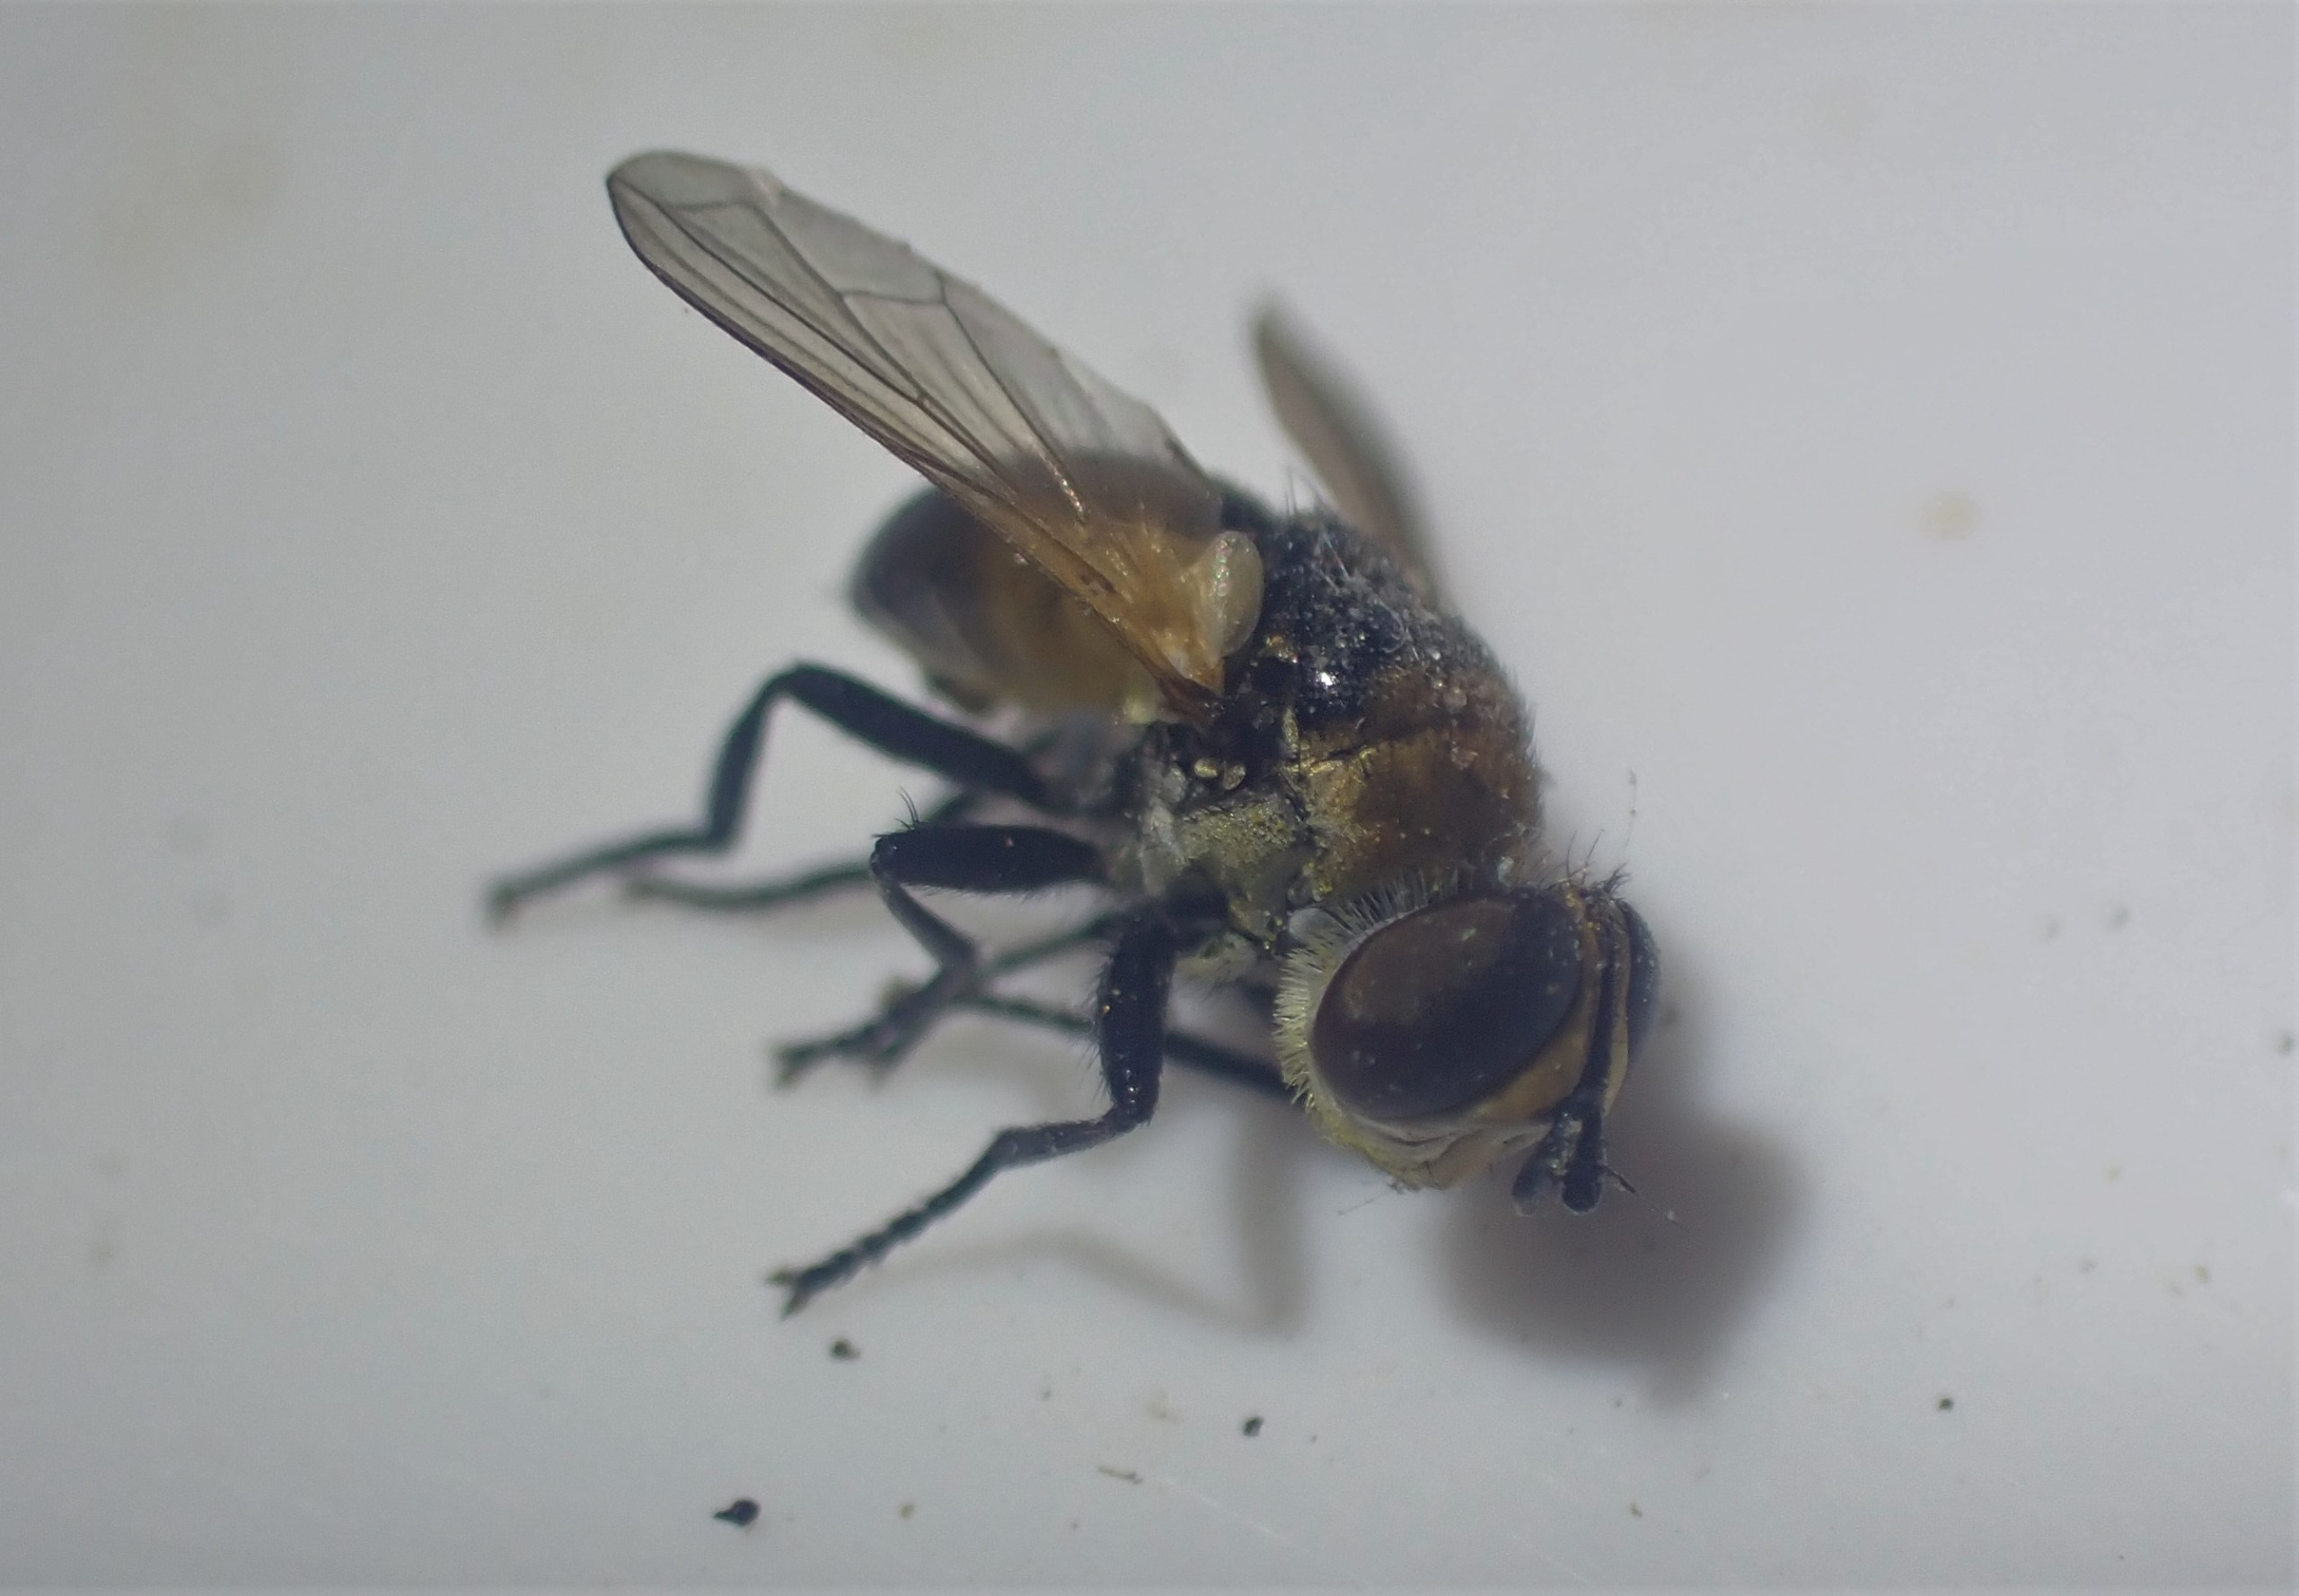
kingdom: Animalia
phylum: Arthropoda
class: Insecta
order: Diptera
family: Tachinidae
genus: Cistogaster
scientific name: Cistogaster globosa
